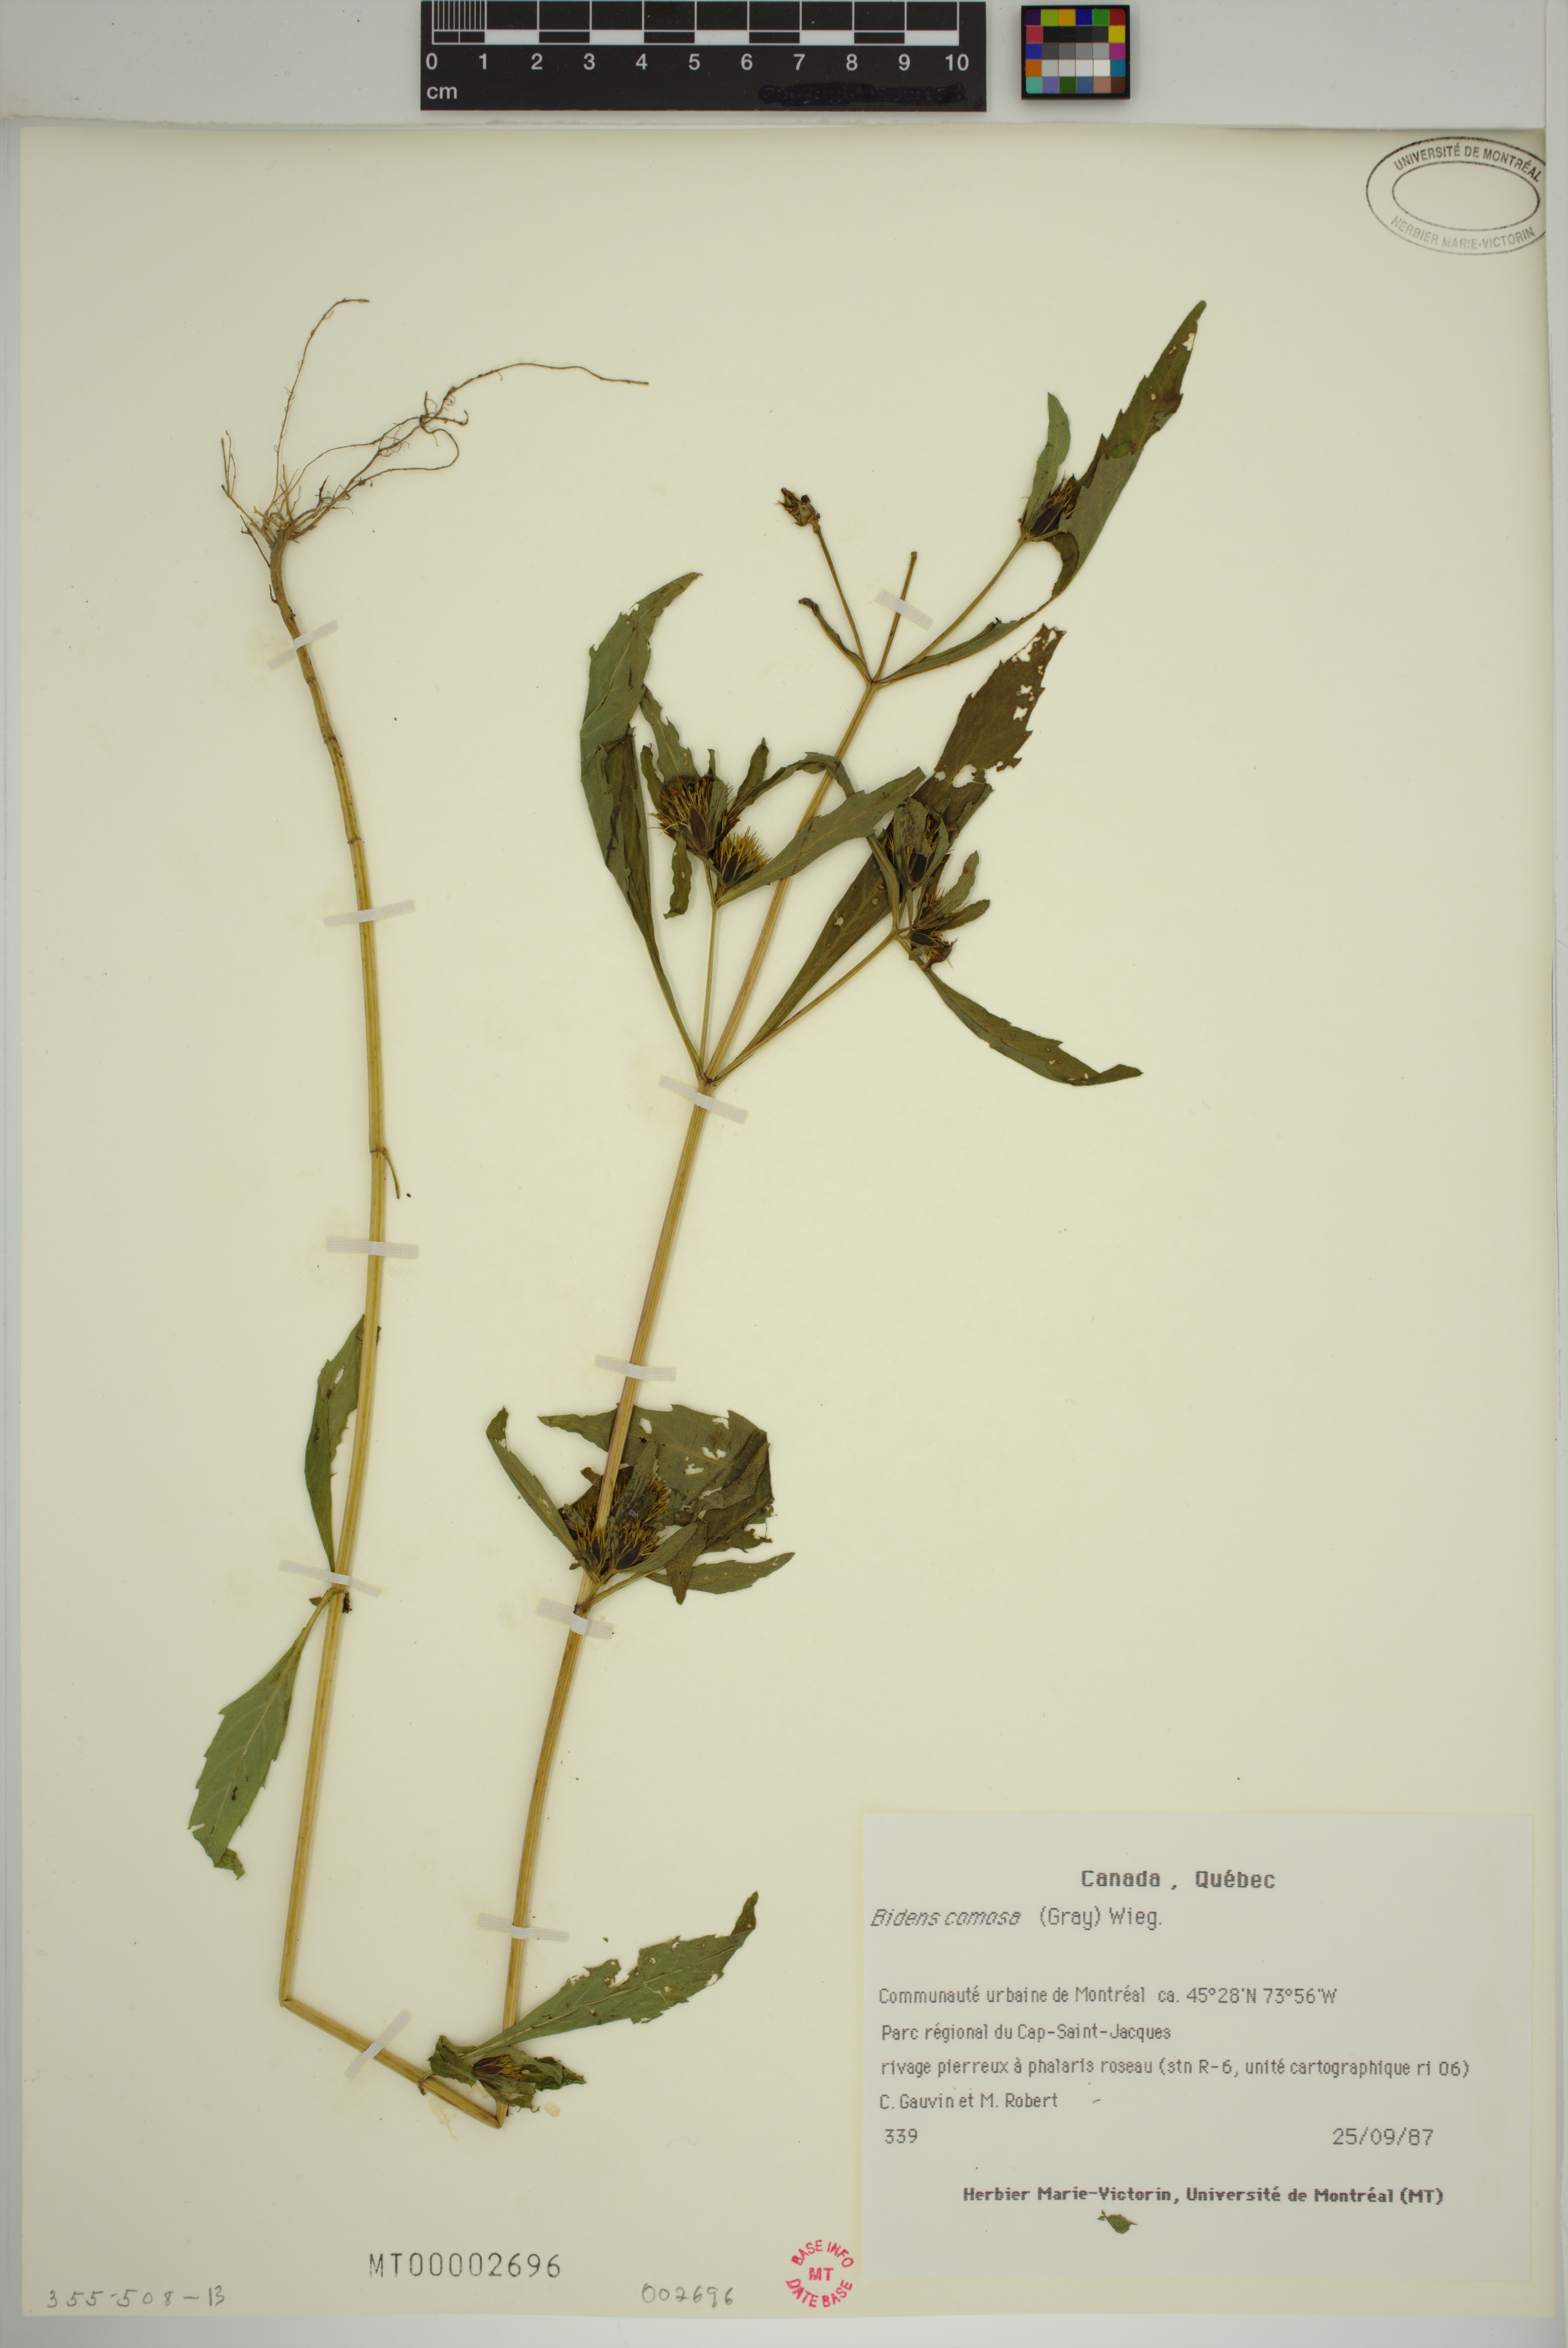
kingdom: Plantae
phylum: Tracheophyta
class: Magnoliopsida
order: Asterales
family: Asteraceae
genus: Bidens
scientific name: Bidens tripartita
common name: Trifid bur-marigold
